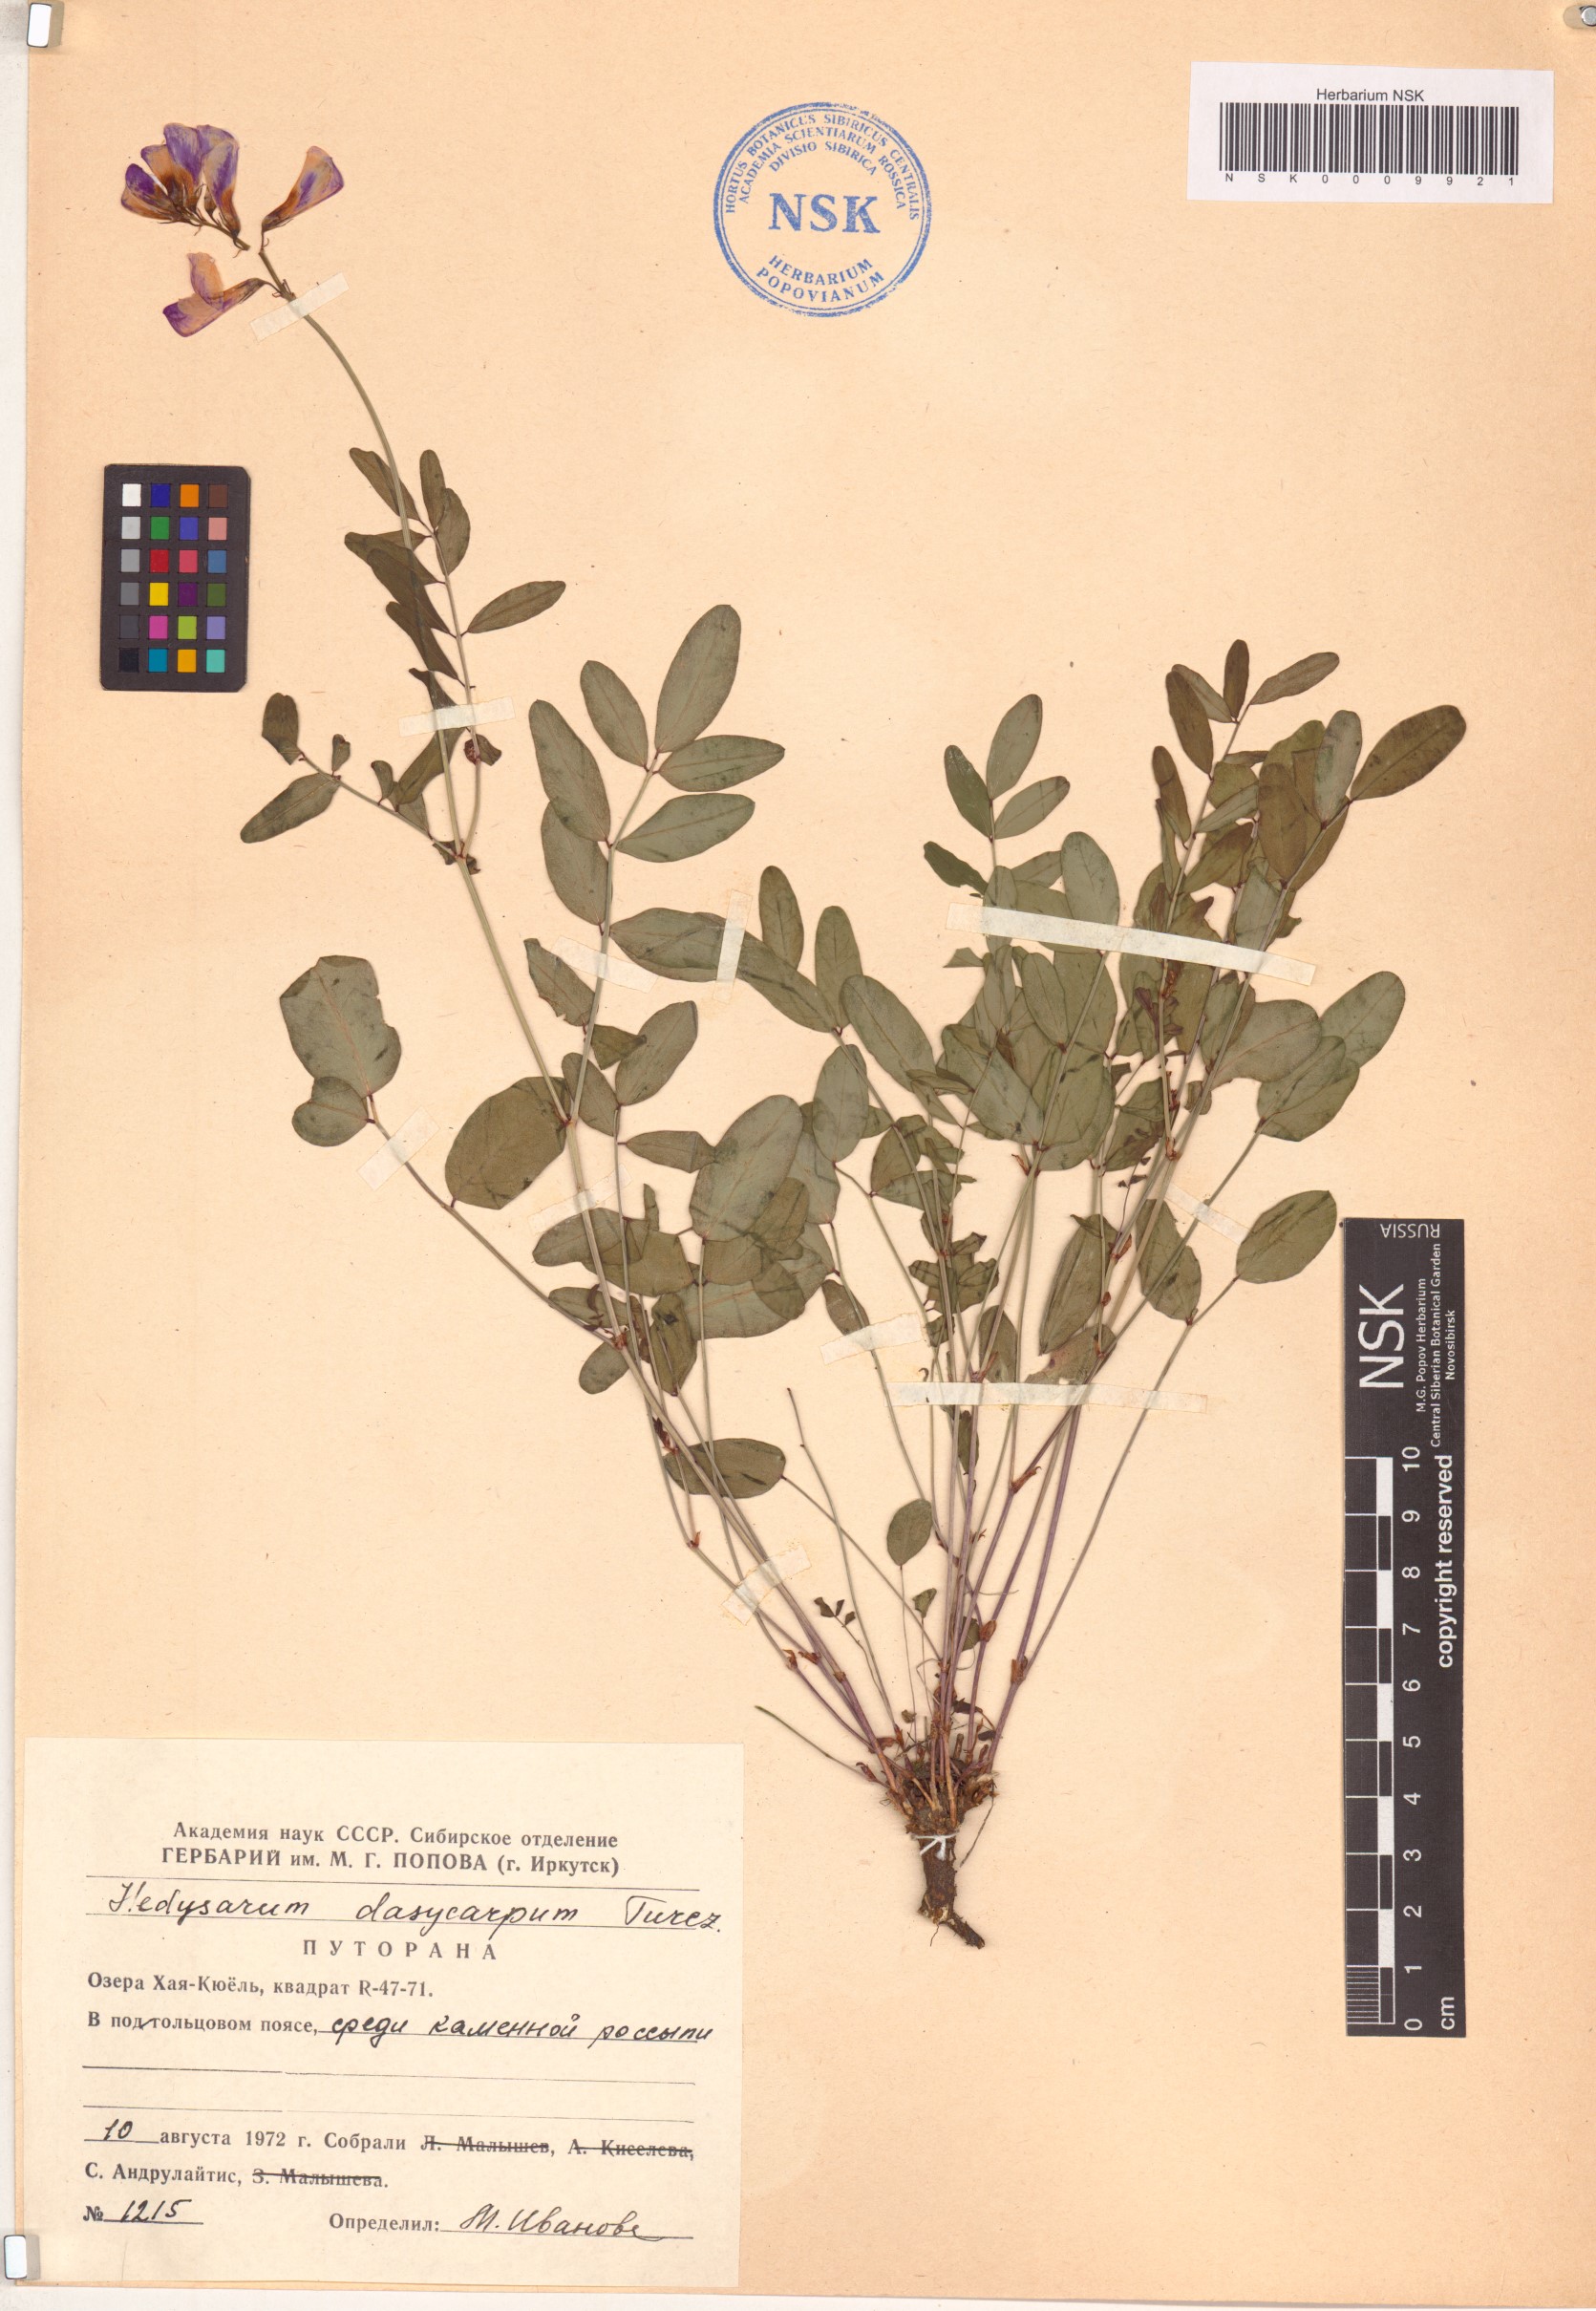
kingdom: Plantae
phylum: Tracheophyta
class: Magnoliopsida
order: Fabales
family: Fabaceae
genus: Hedysarum
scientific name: Hedysarum dasycarpum
